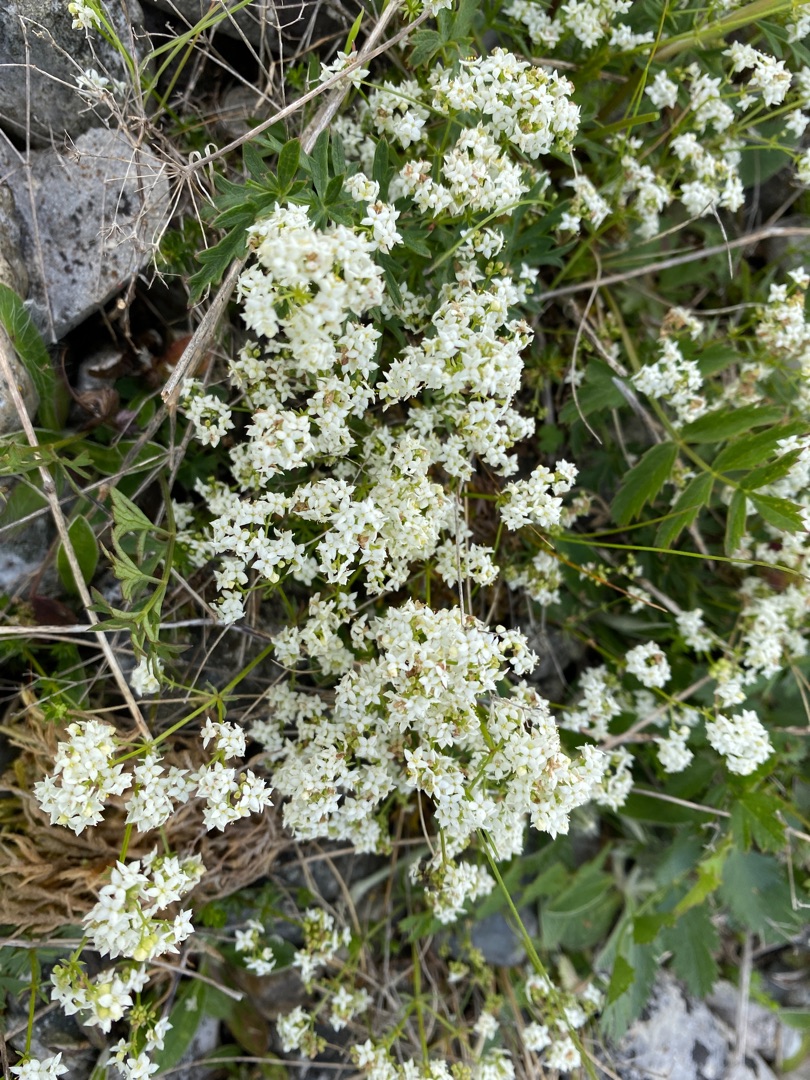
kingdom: Plantae
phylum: Tracheophyta
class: Magnoliopsida
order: Gentianales
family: Rubiaceae
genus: Galium
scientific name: Galium mollugo
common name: Hvid snerre
